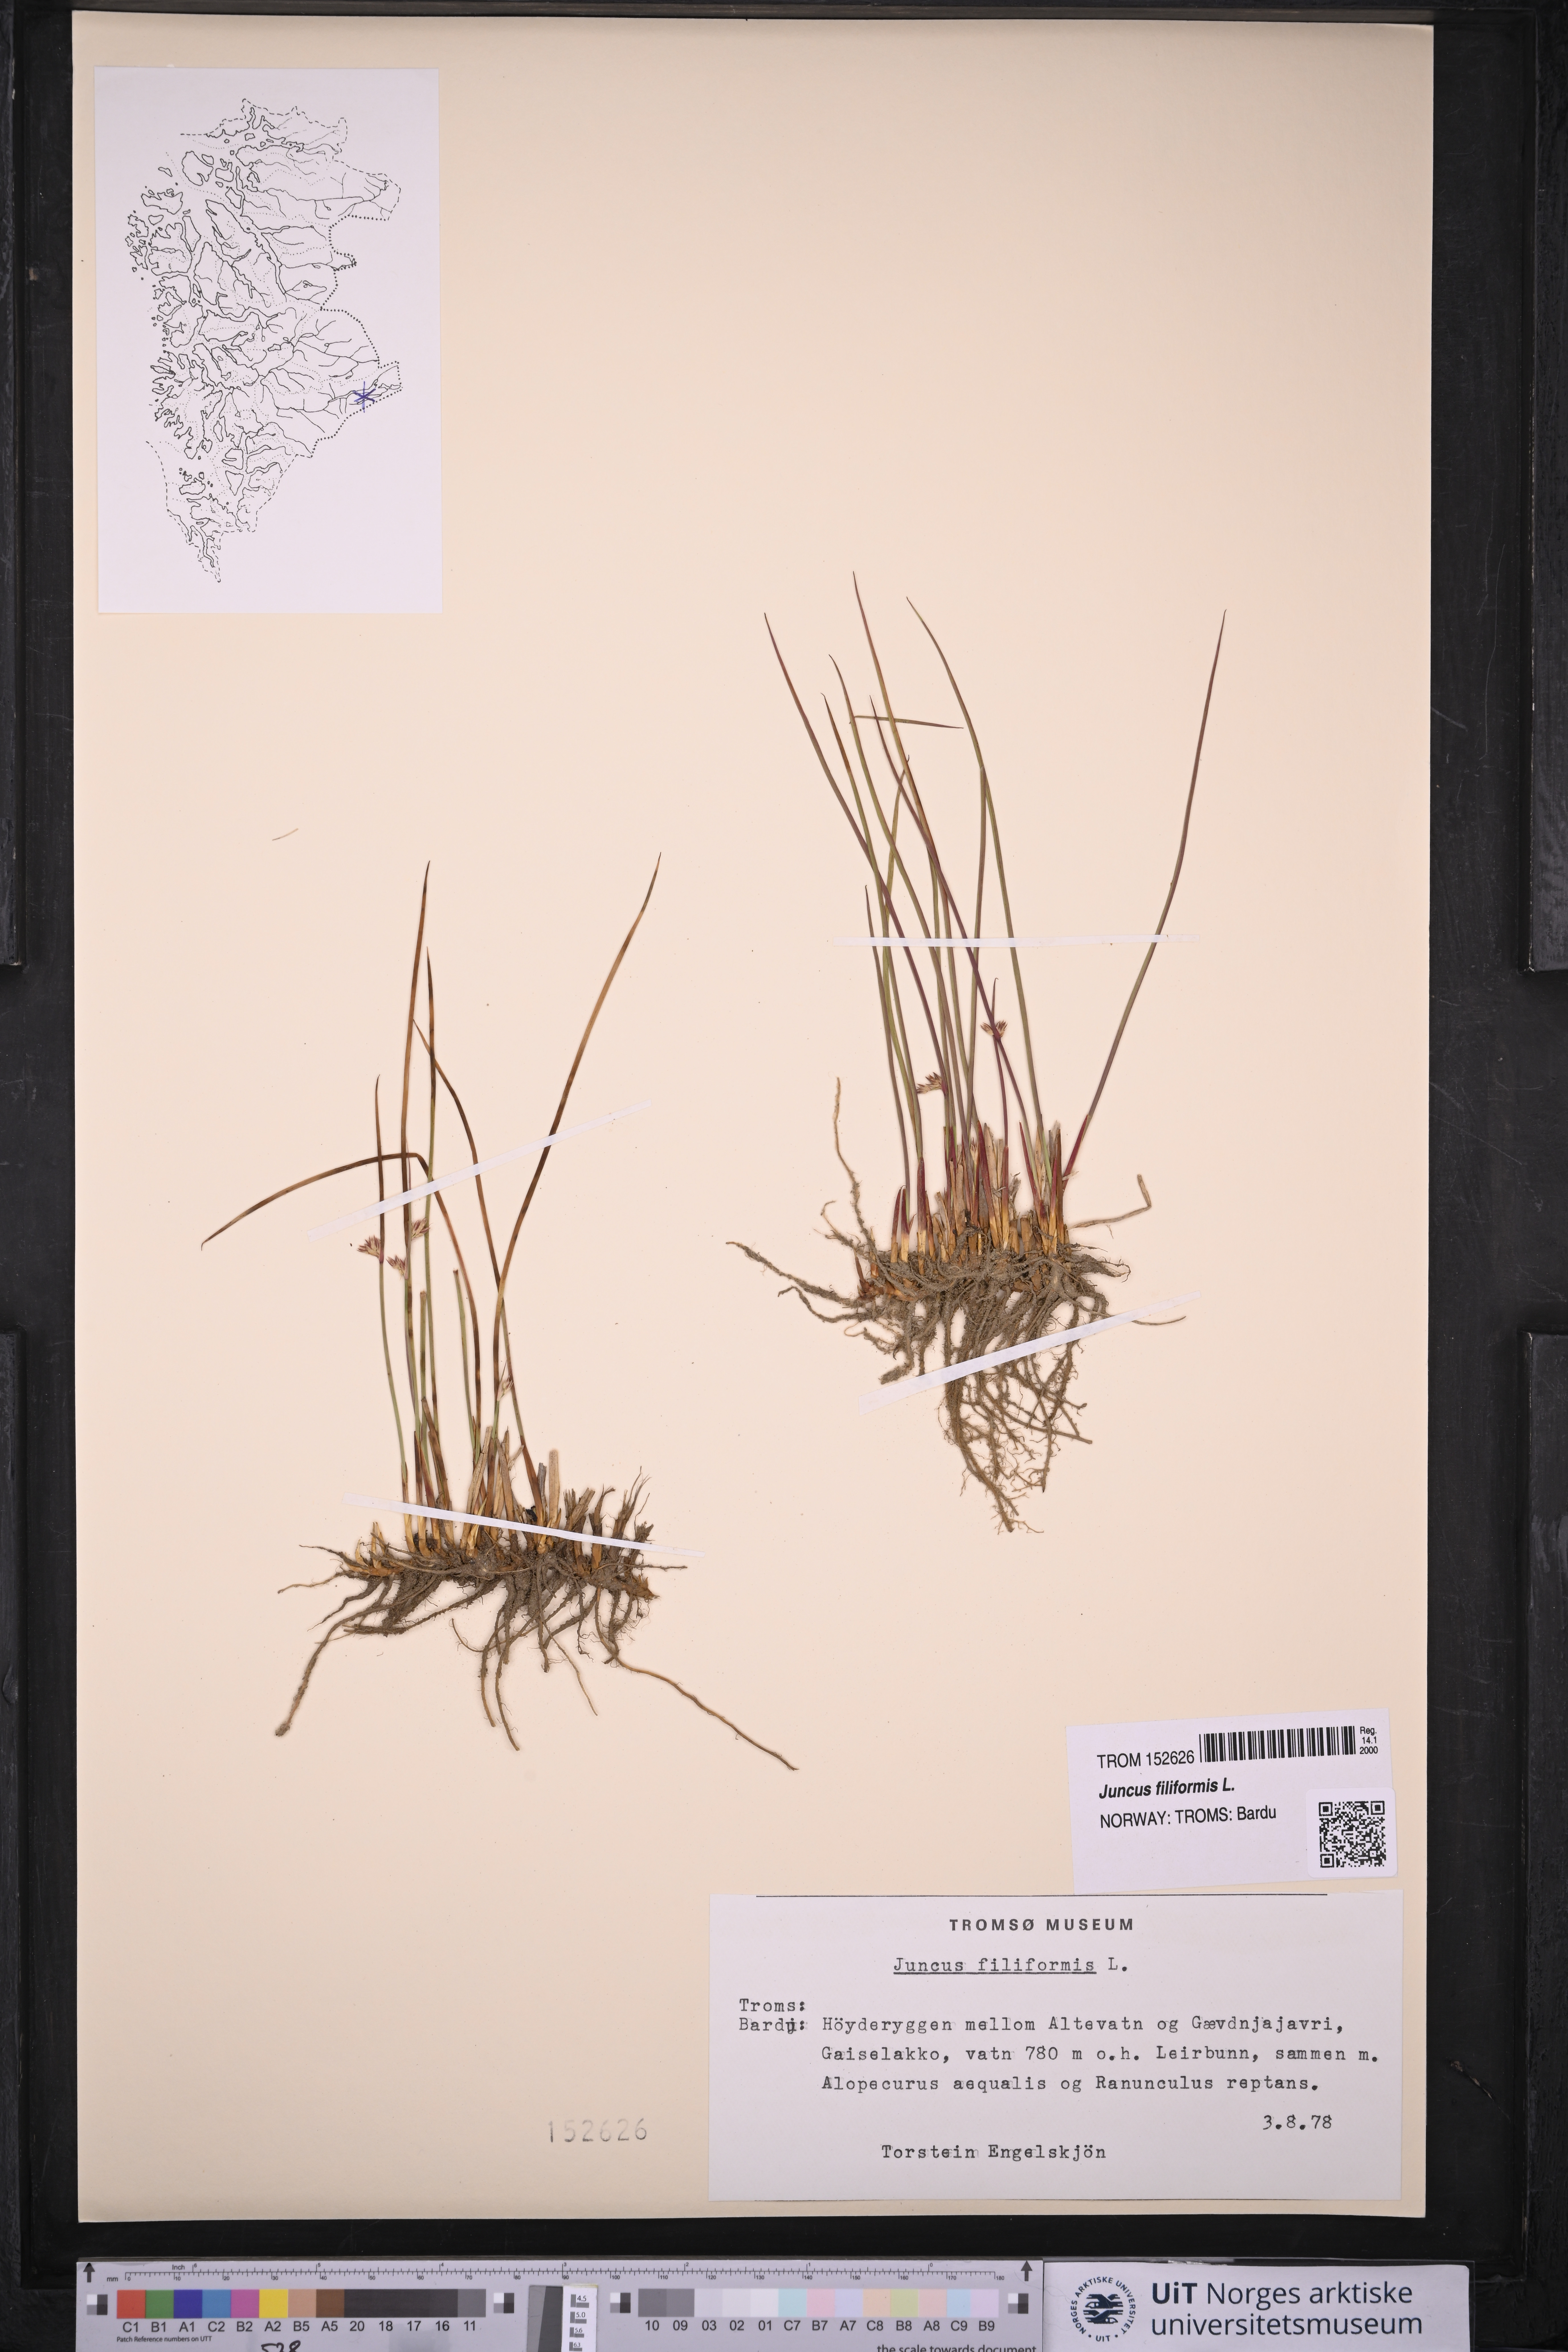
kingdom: Plantae
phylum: Tracheophyta
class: Liliopsida
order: Poales
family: Juncaceae
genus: Juncus
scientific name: Juncus filiformis
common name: Thread rush
